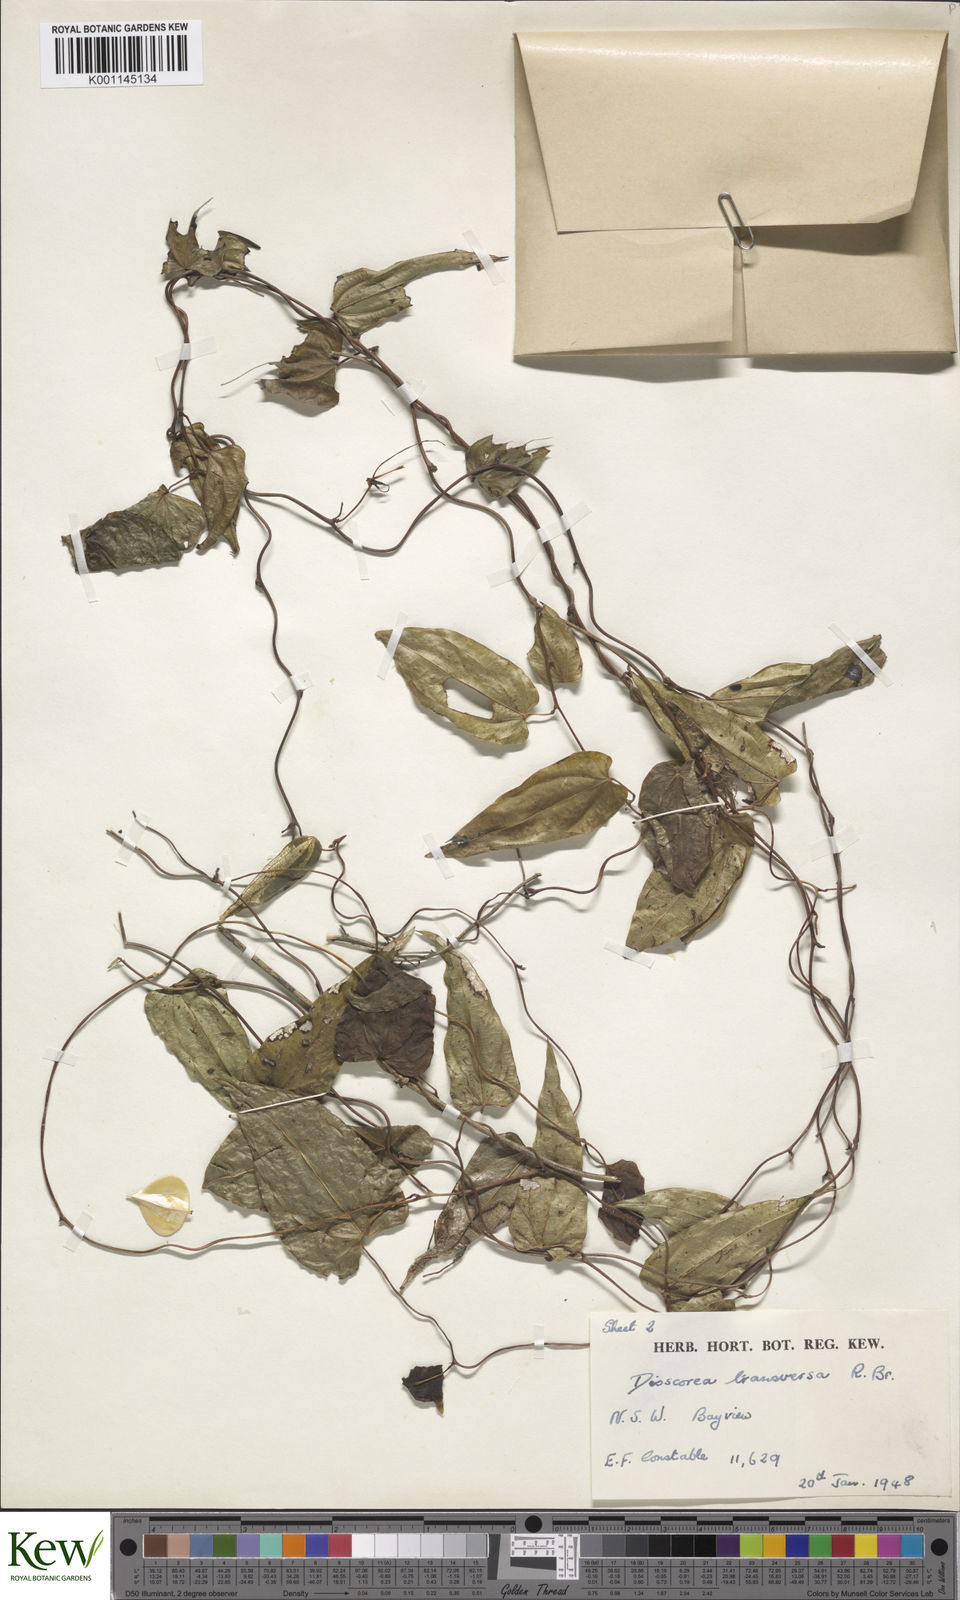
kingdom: Plantae
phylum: Tracheophyta
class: Liliopsida
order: Dioscoreales
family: Dioscoreaceae
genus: Dioscorea
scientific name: Dioscorea transversa
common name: Long yam
